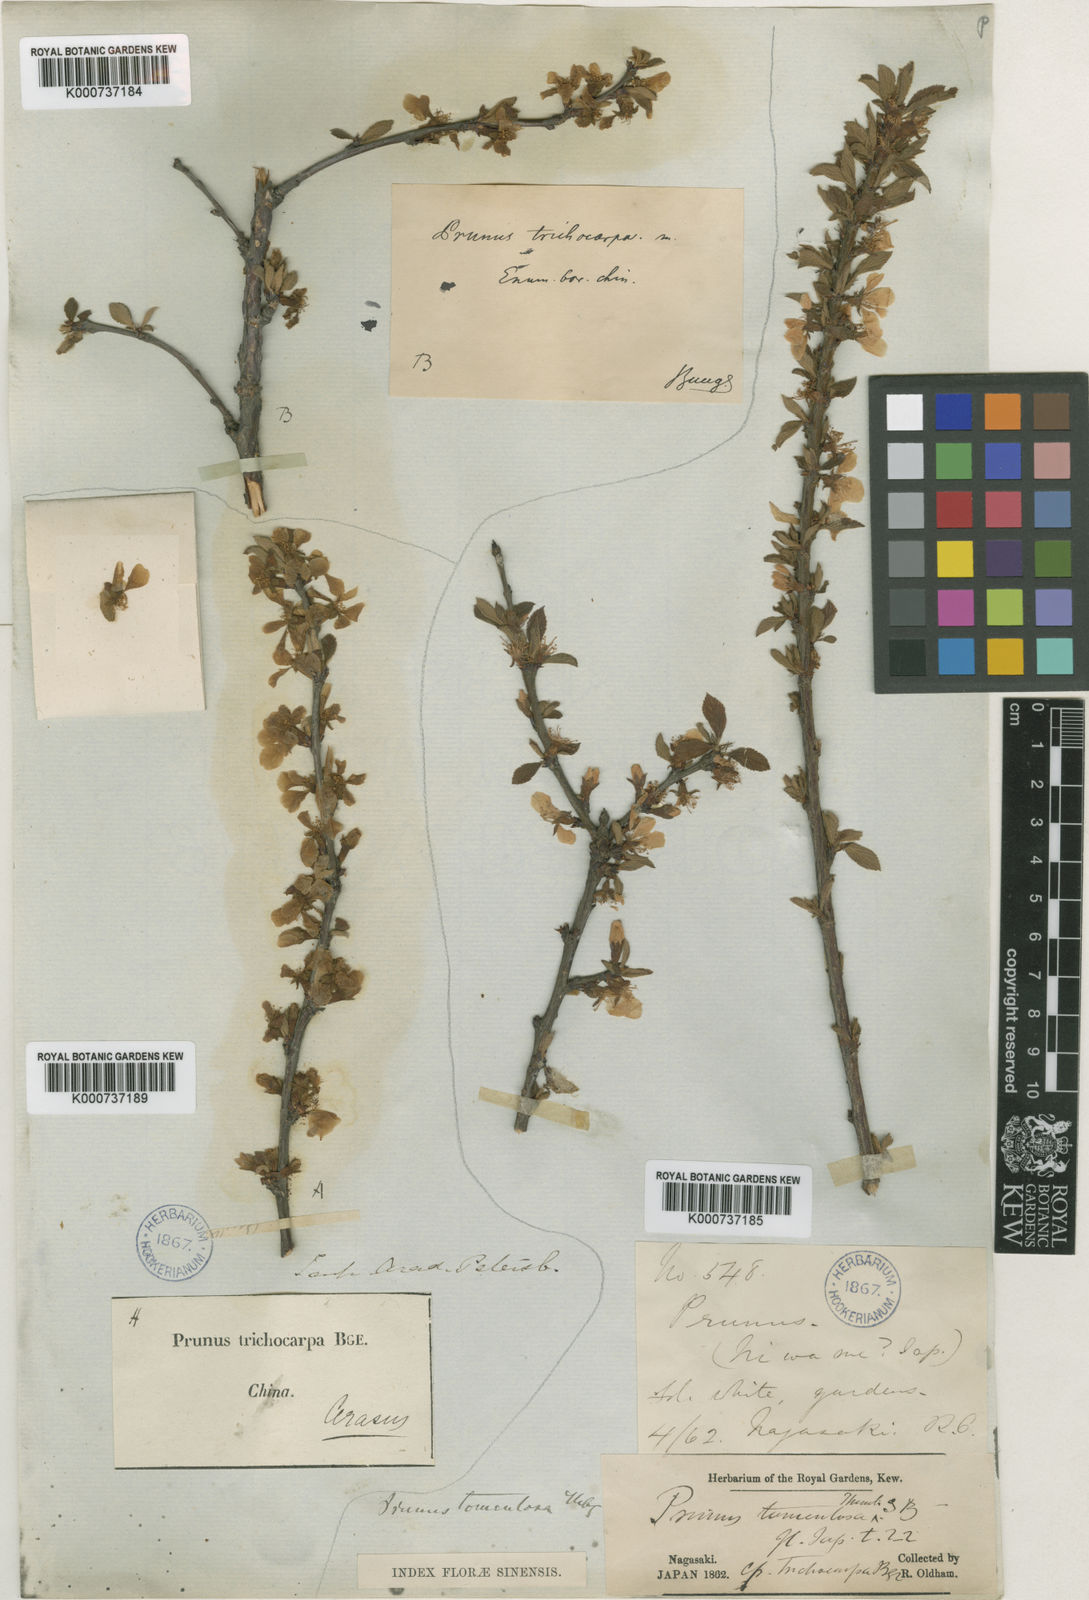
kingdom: Plantae
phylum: Tracheophyta
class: Magnoliopsida
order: Rosales
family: Rosaceae
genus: Prunus
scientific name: Prunus tomentosa
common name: Nanking cherry
